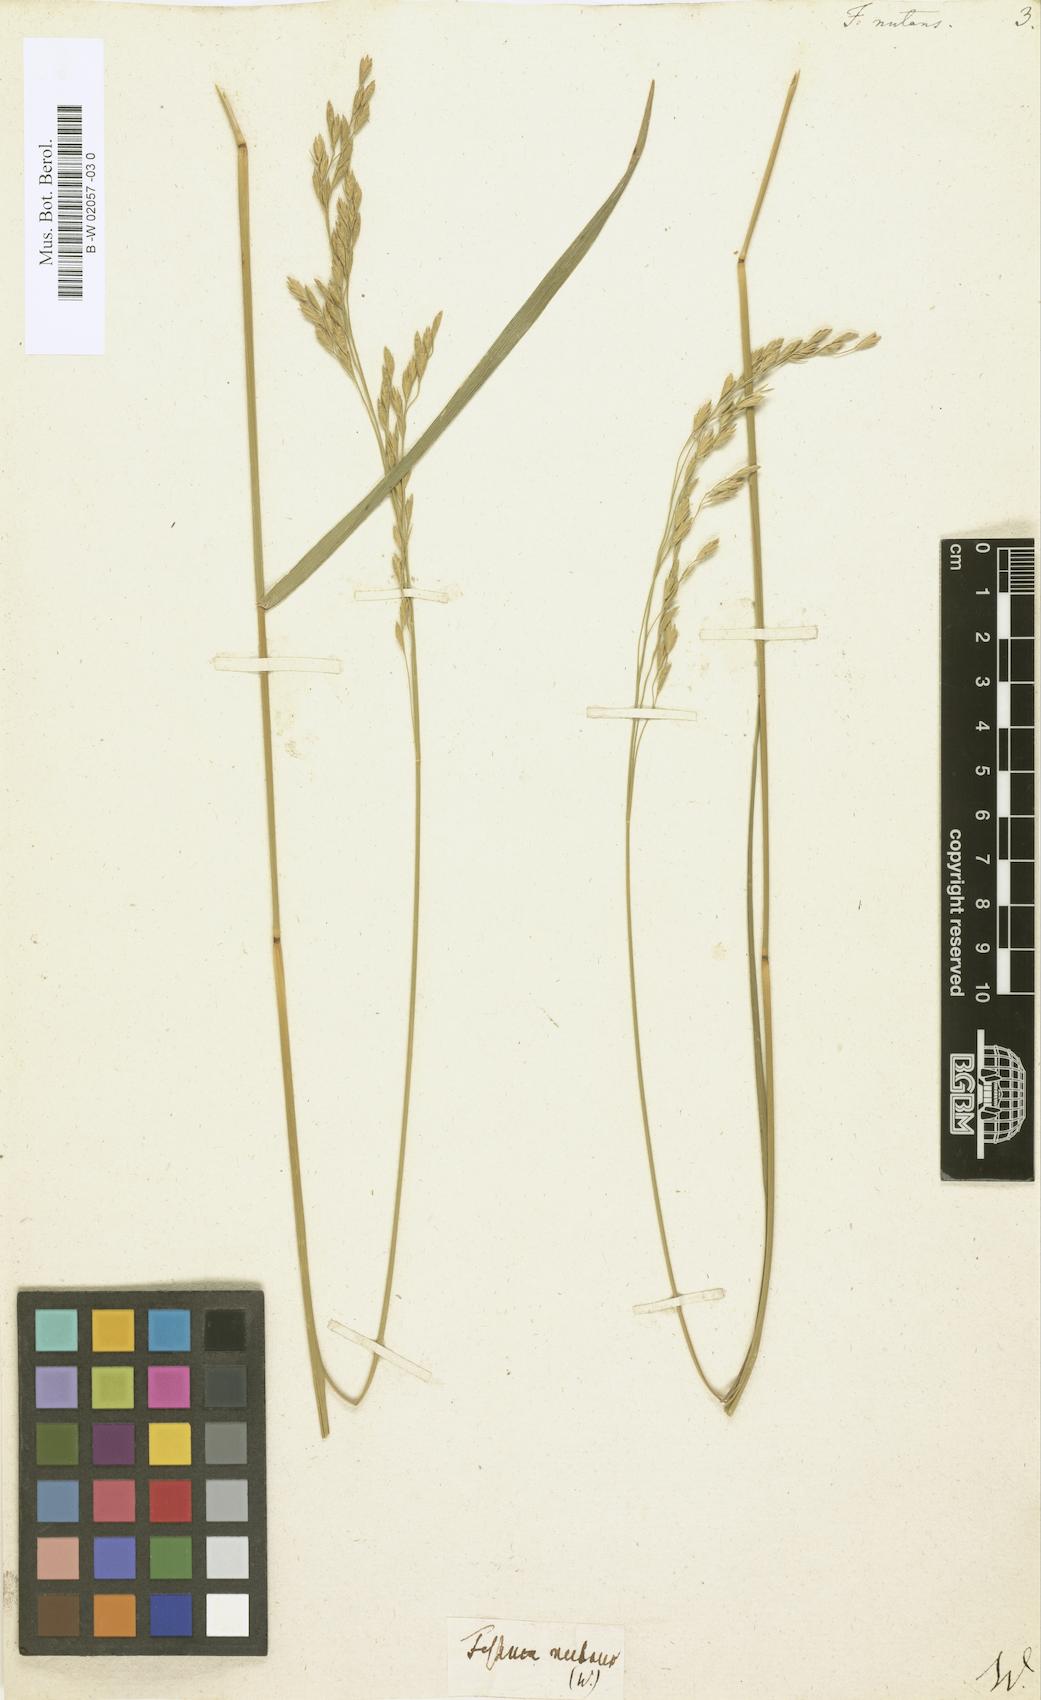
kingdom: Plantae
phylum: Tracheophyta
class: Liliopsida
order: Poales
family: Poaceae
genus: Festuca
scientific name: Festuca nutans
